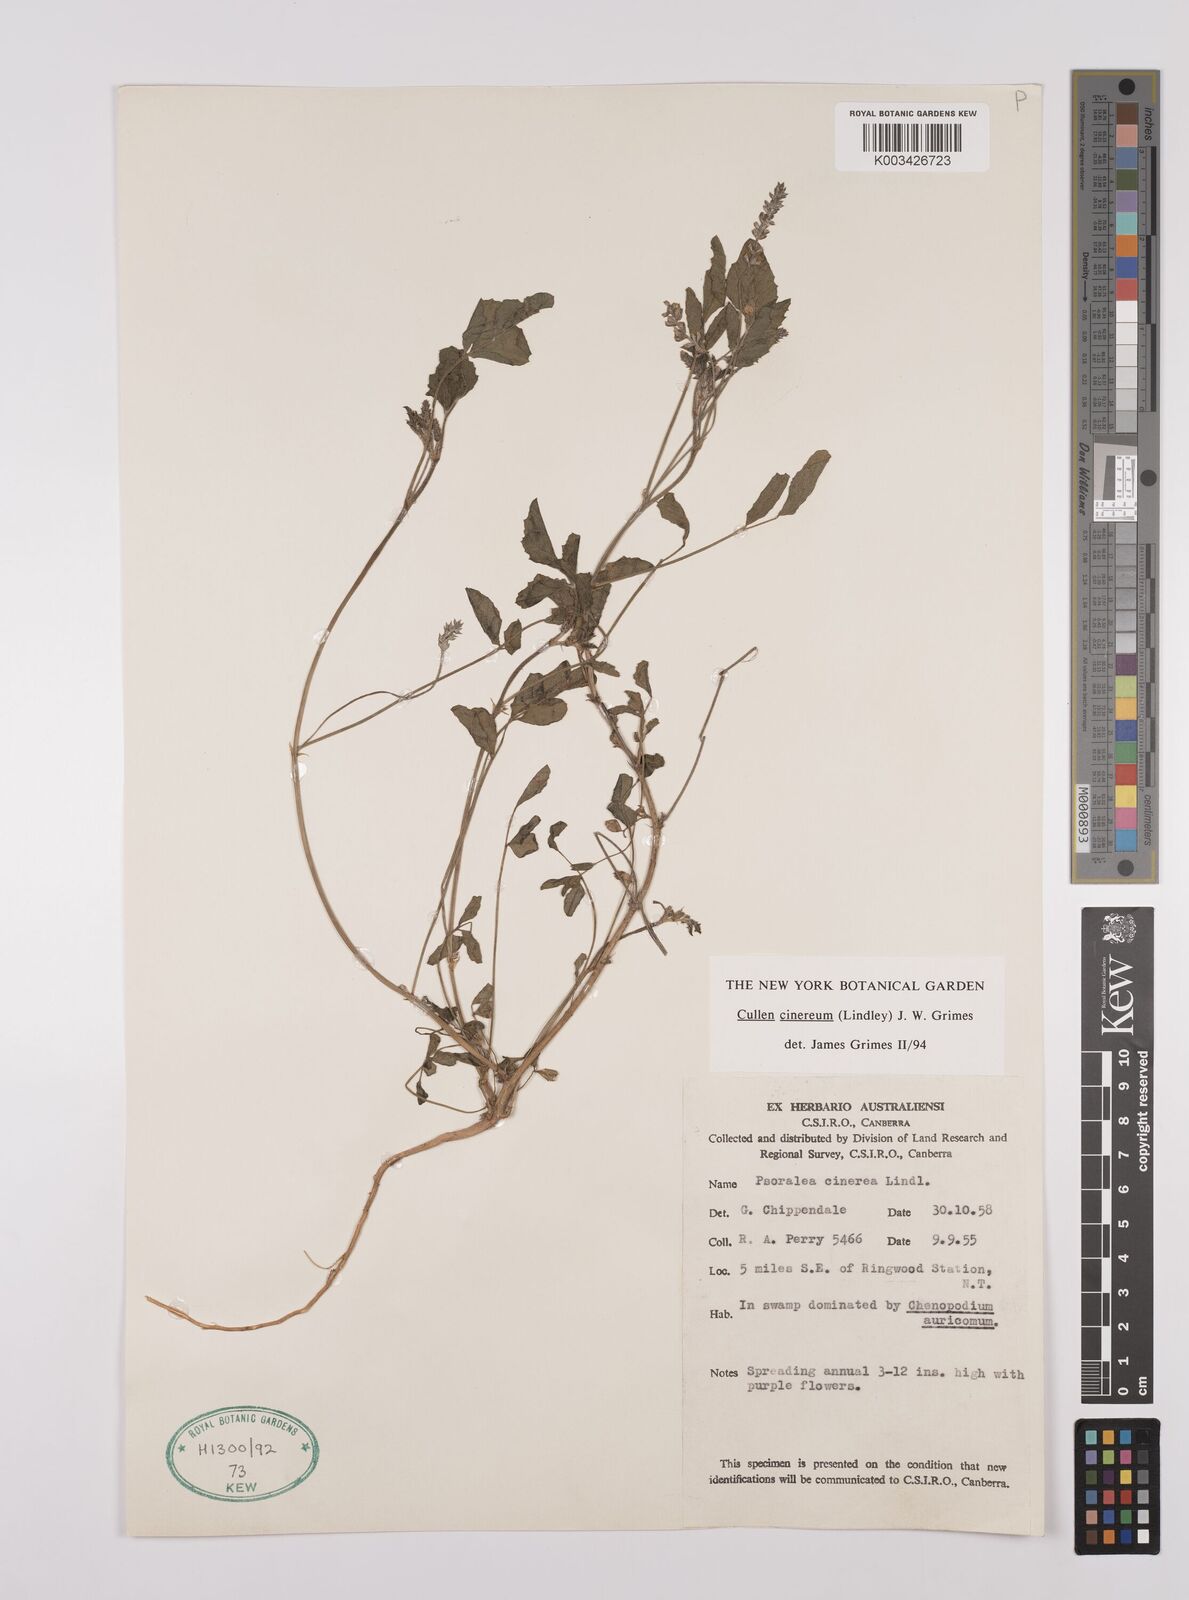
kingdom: Plantae
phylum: Tracheophyta
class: Magnoliopsida
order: Fabales
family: Fabaceae
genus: Cullen
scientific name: Cullen cinereum
